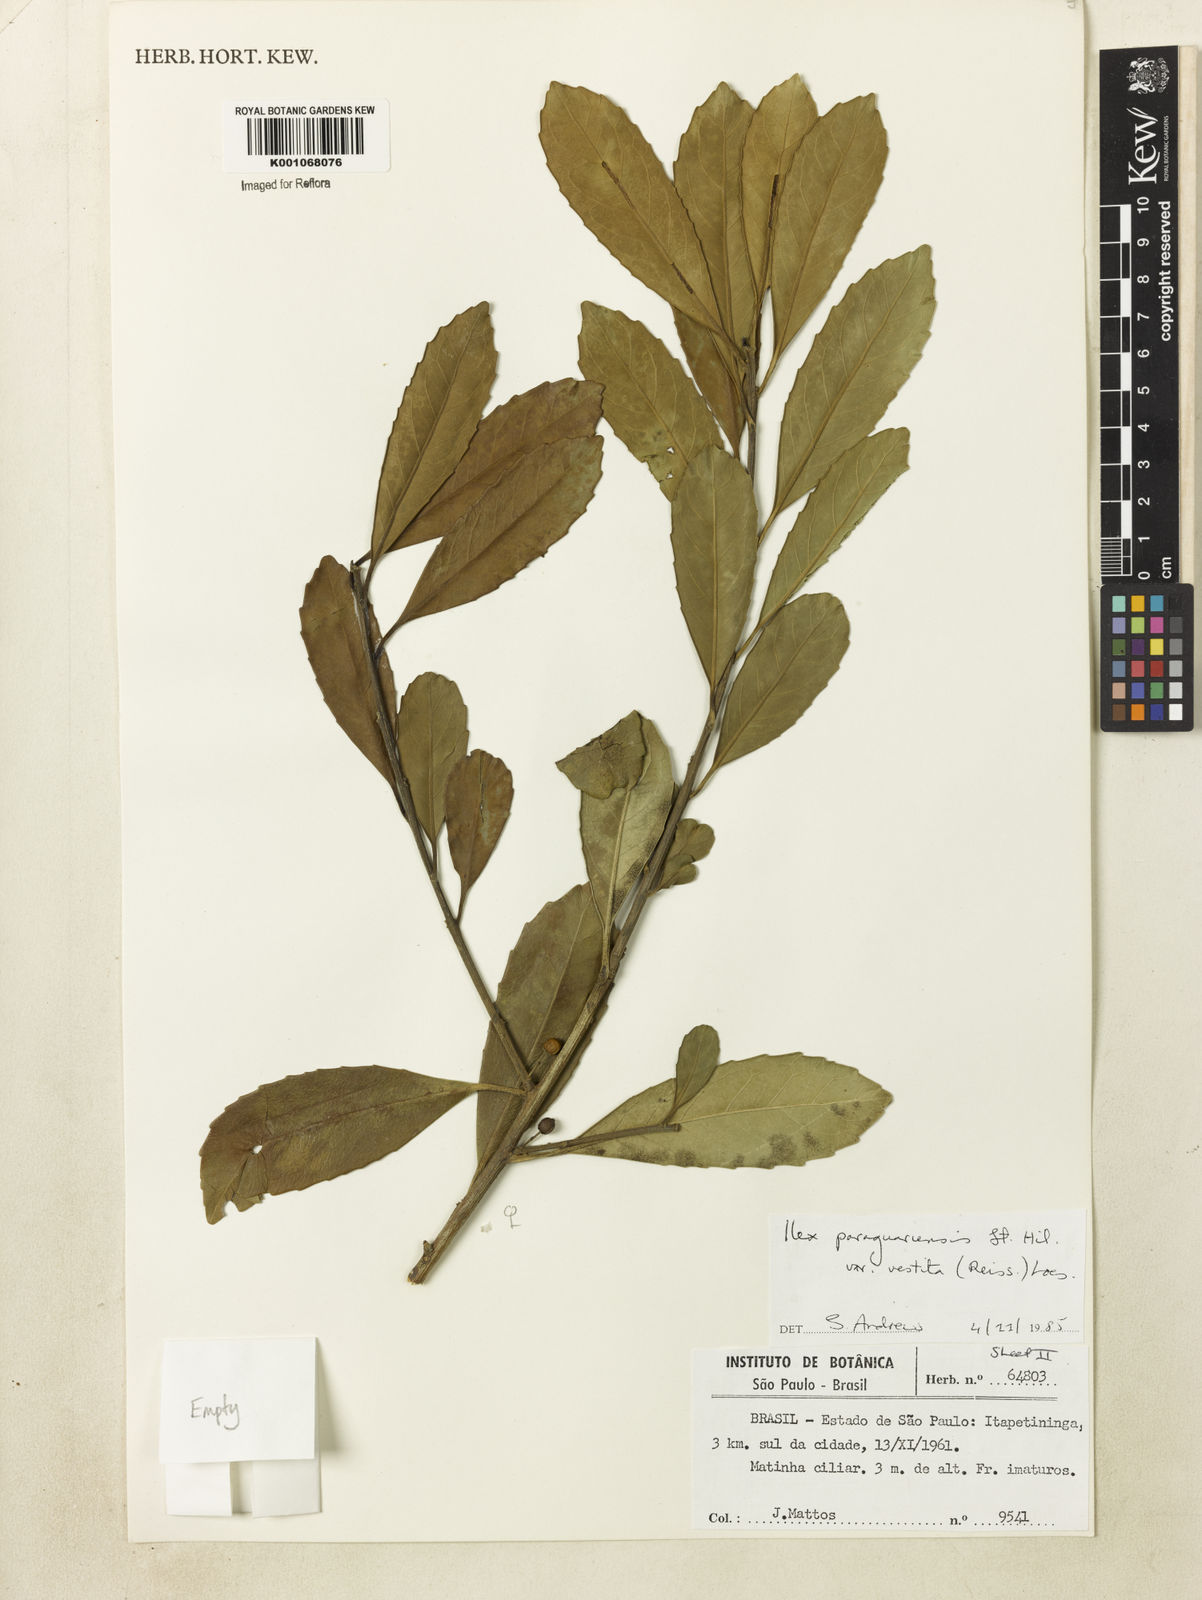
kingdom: Plantae
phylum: Tracheophyta
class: Magnoliopsida
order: Aquifoliales
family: Aquifoliaceae
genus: Ilex
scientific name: Ilex paraguariensis
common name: Paraguay tea
